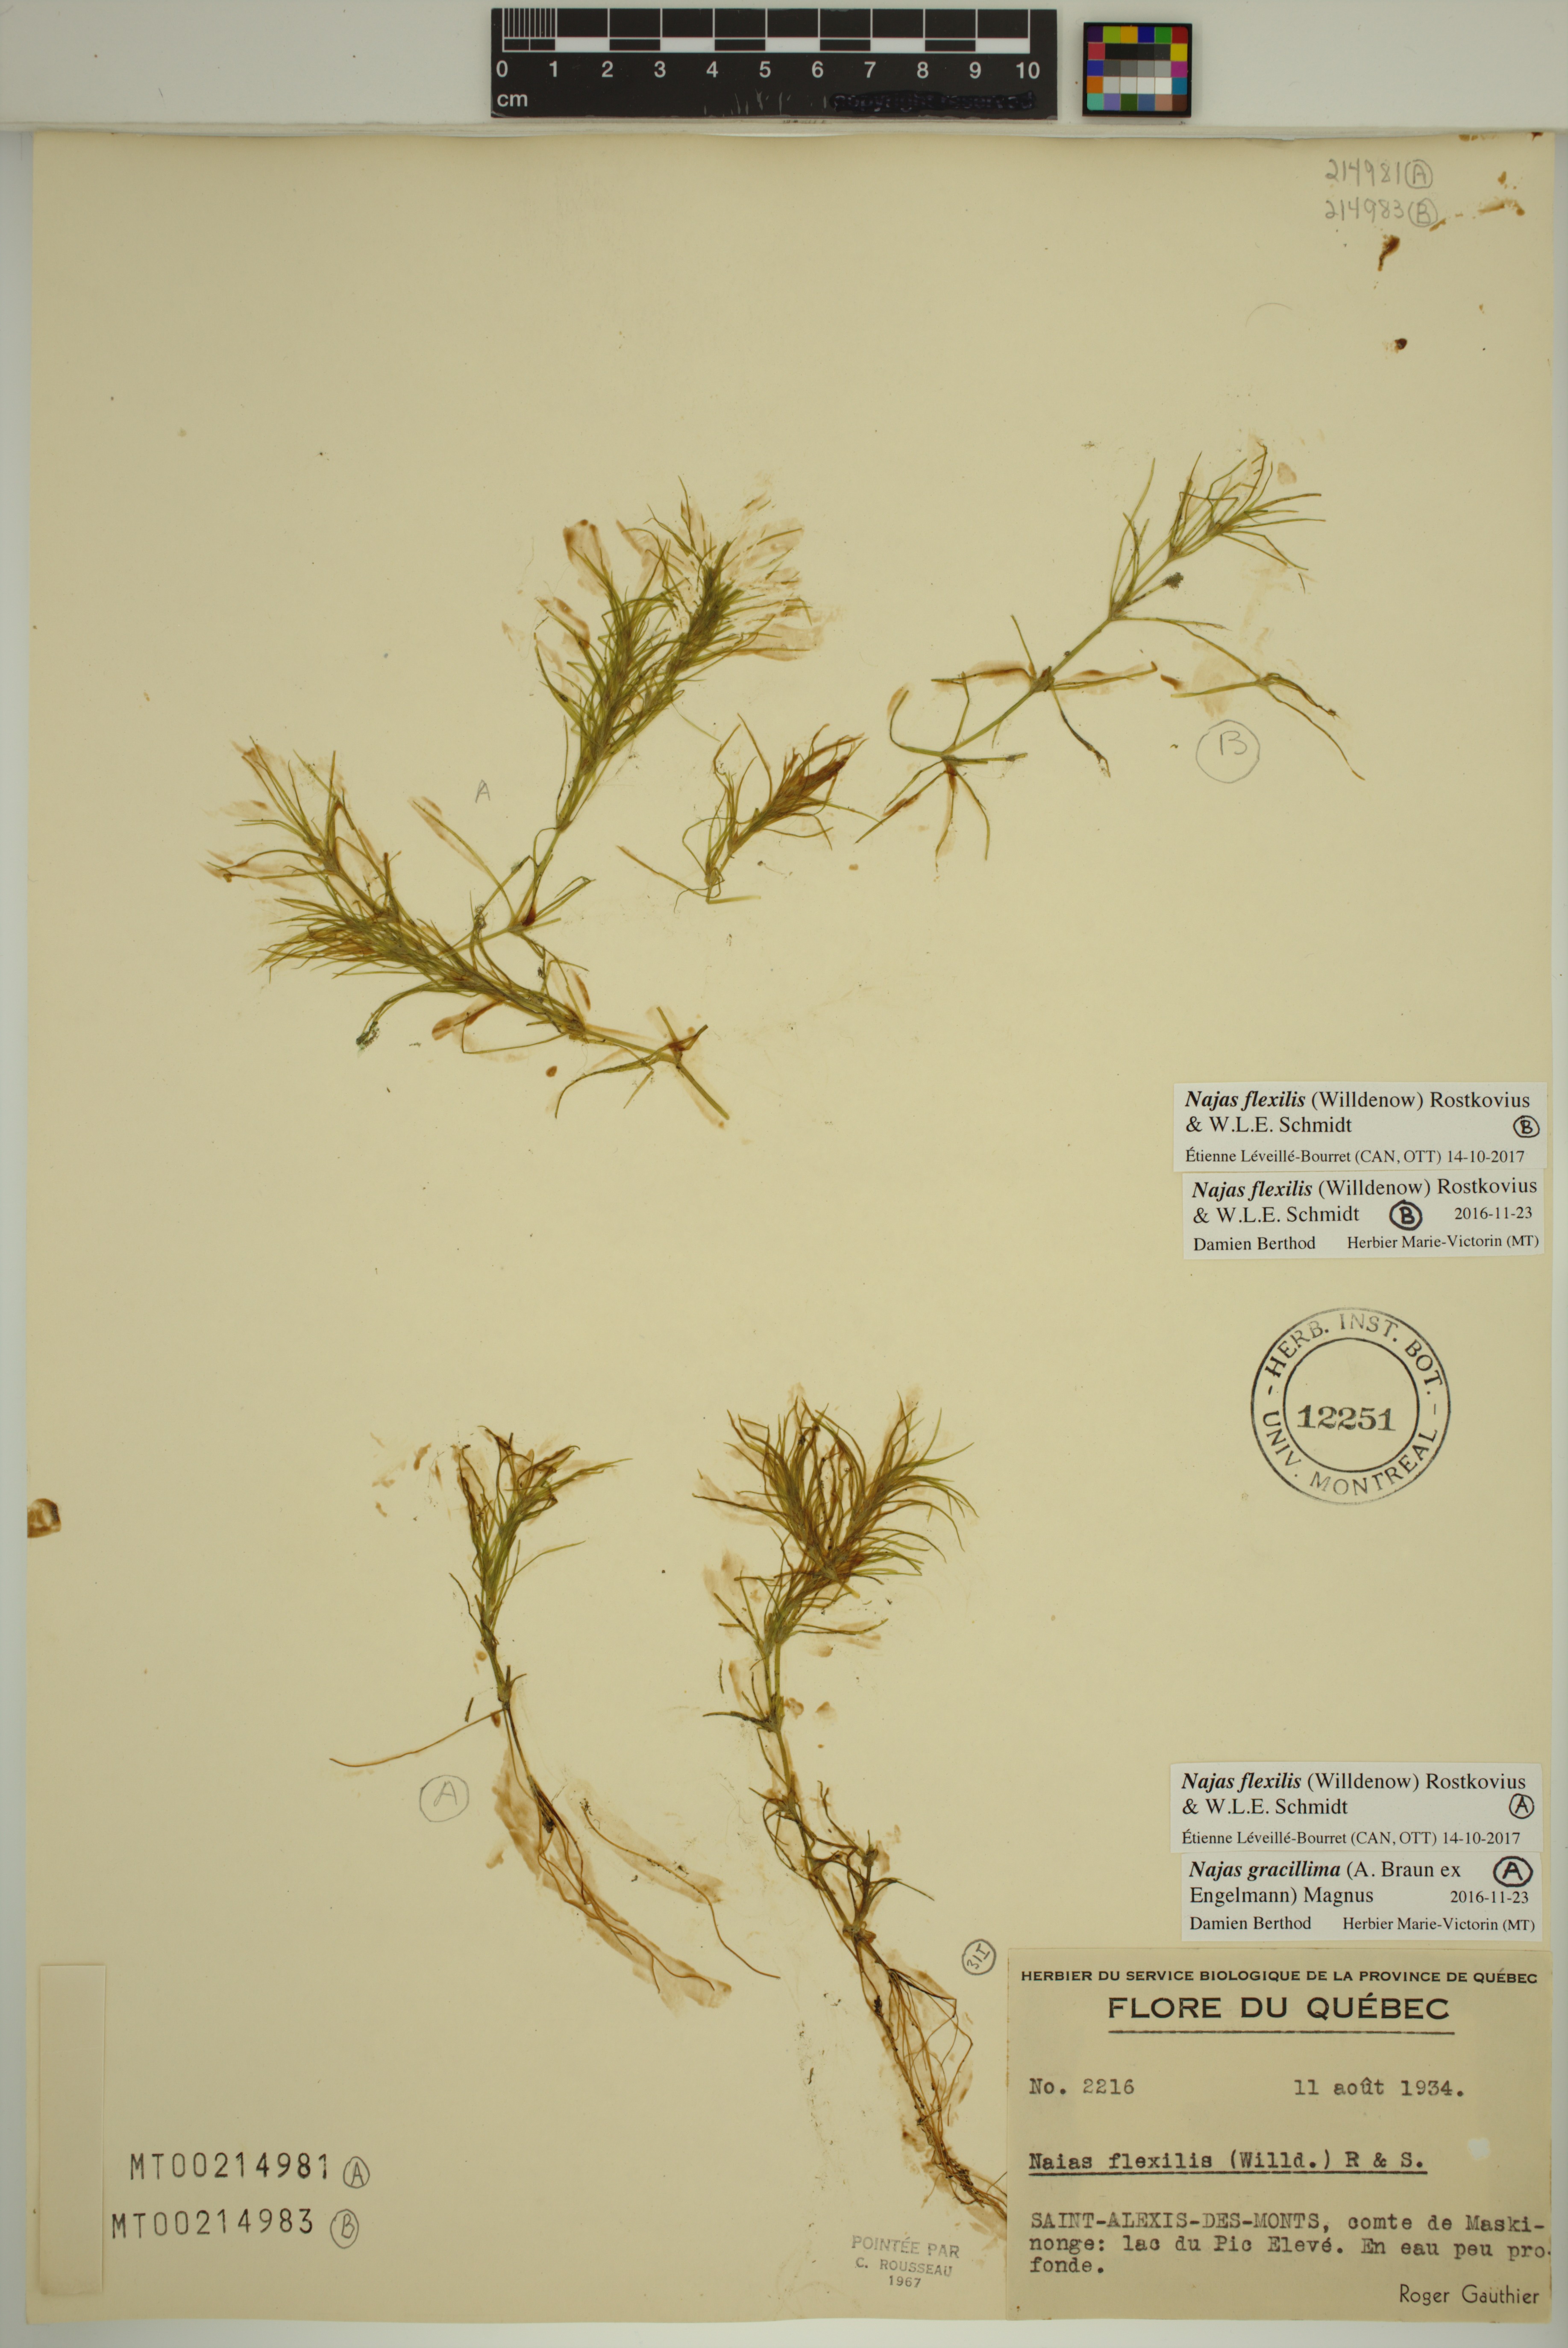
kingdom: Plantae
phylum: Tracheophyta
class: Liliopsida
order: Alismatales
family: Hydrocharitaceae
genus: Najas
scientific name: Najas flexilis
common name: Slender naiad
